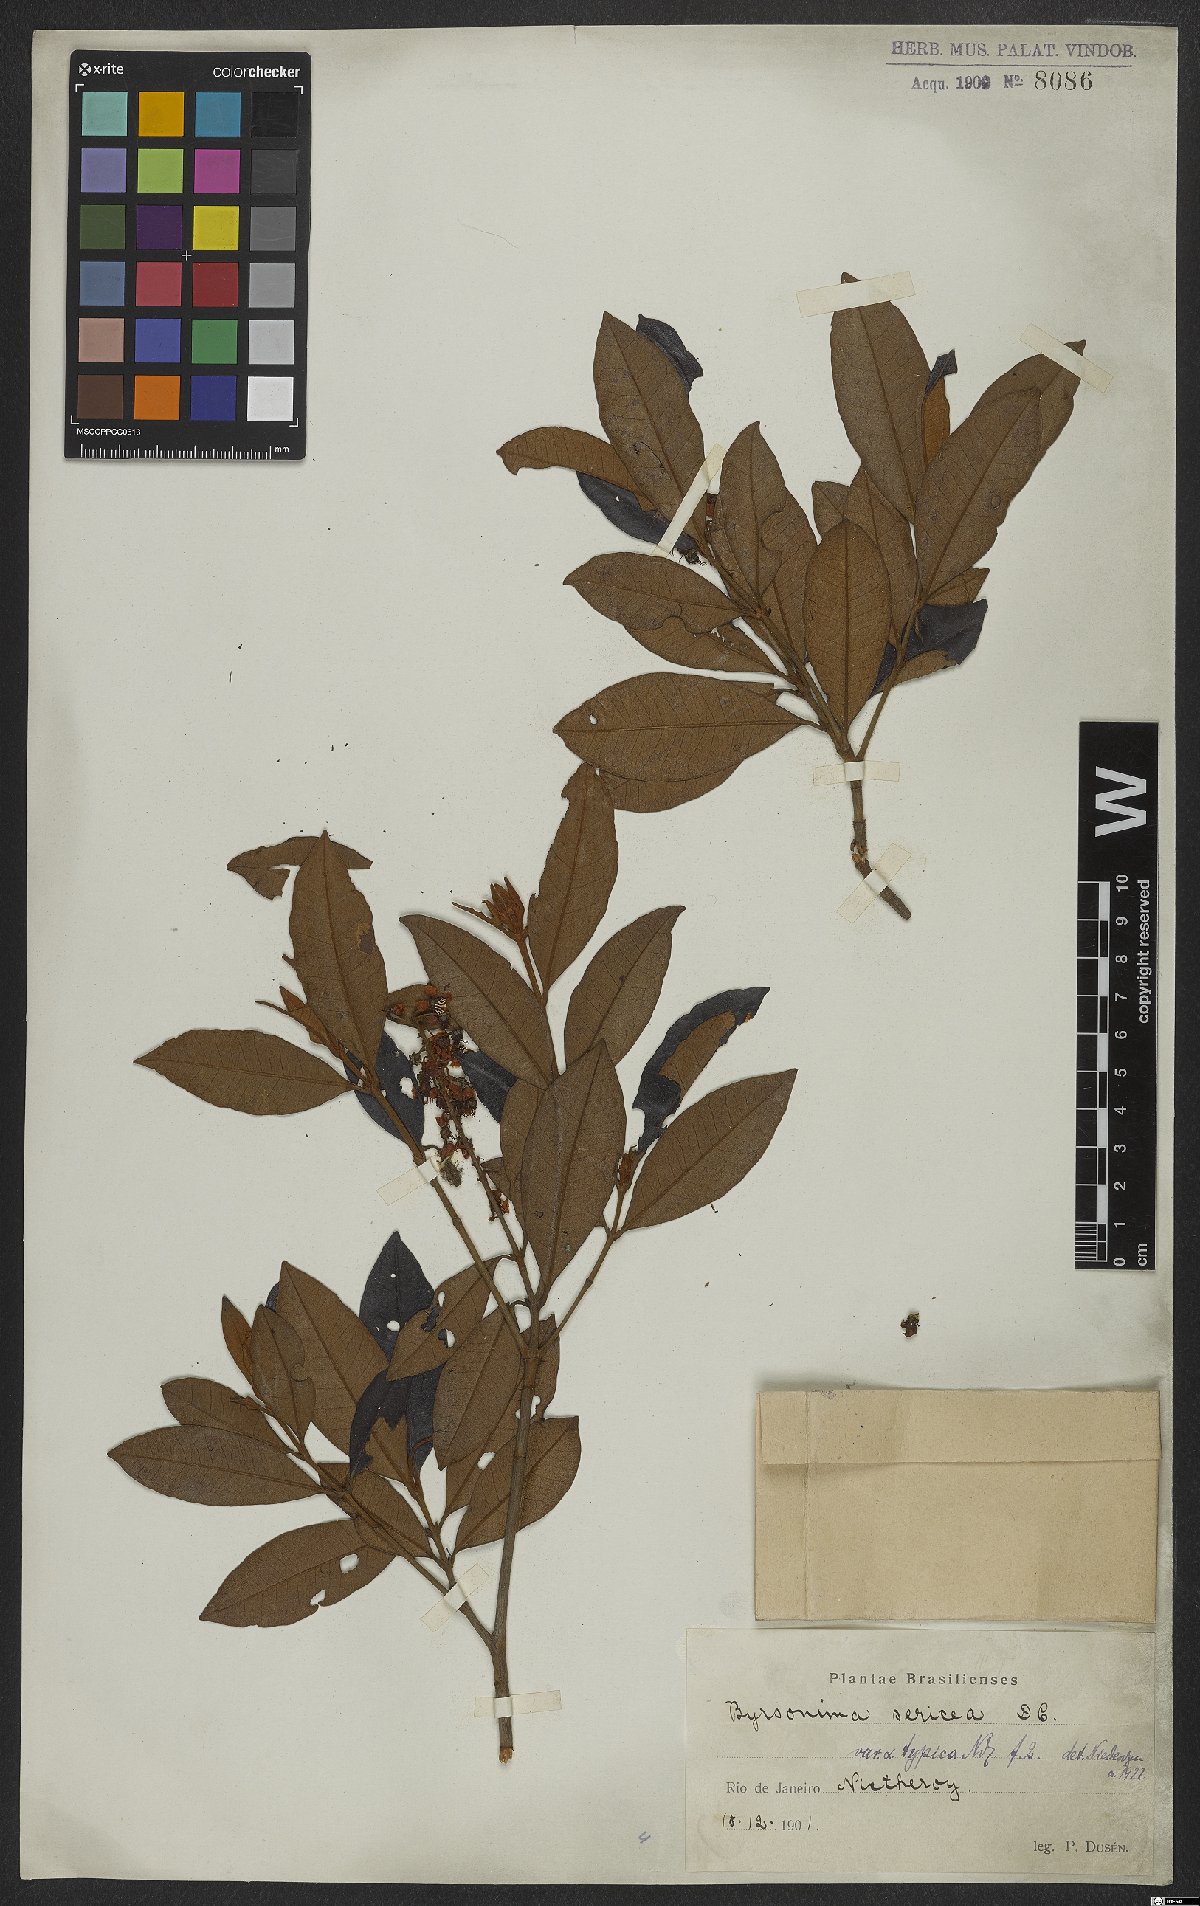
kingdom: Plantae
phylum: Tracheophyta
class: Magnoliopsida
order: Malpighiales
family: Malpighiaceae
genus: Byrsonima
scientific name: Byrsonima sericea
